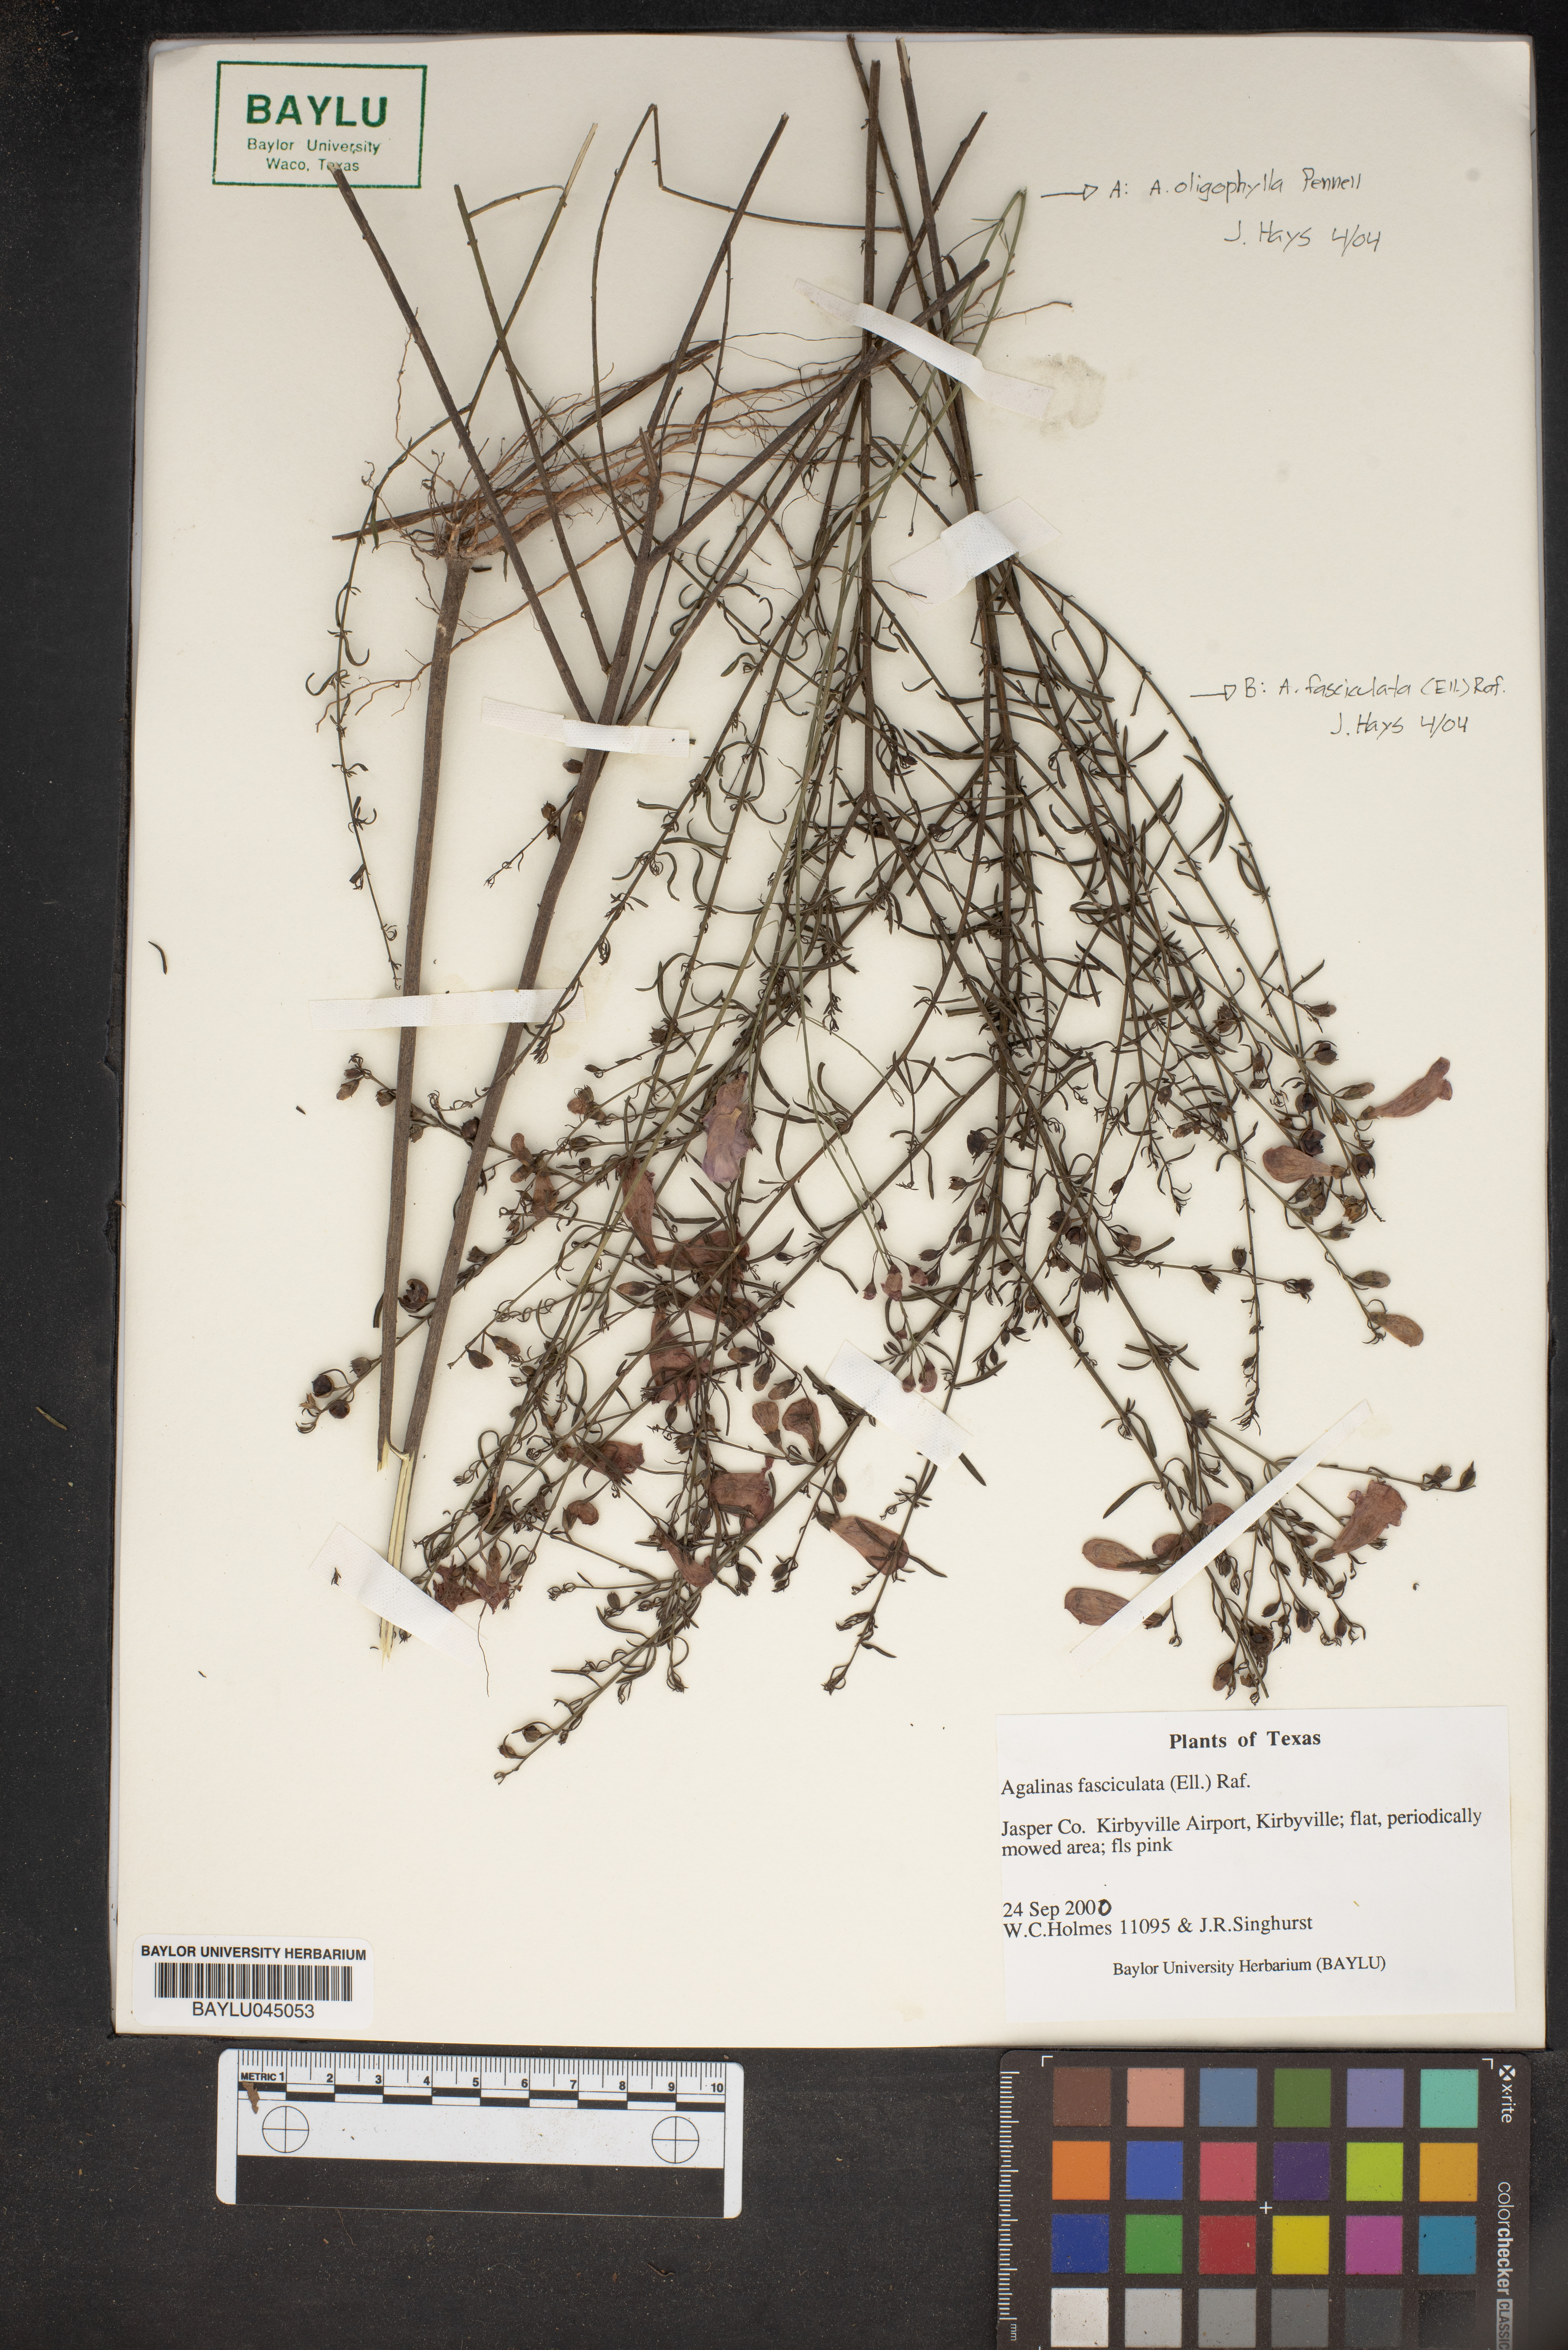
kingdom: Plantae
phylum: Tracheophyta
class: Magnoliopsida
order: Lamiales
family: Orobanchaceae
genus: Agalinis
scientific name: Agalinis fasciculata
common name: Beach false foxglove
